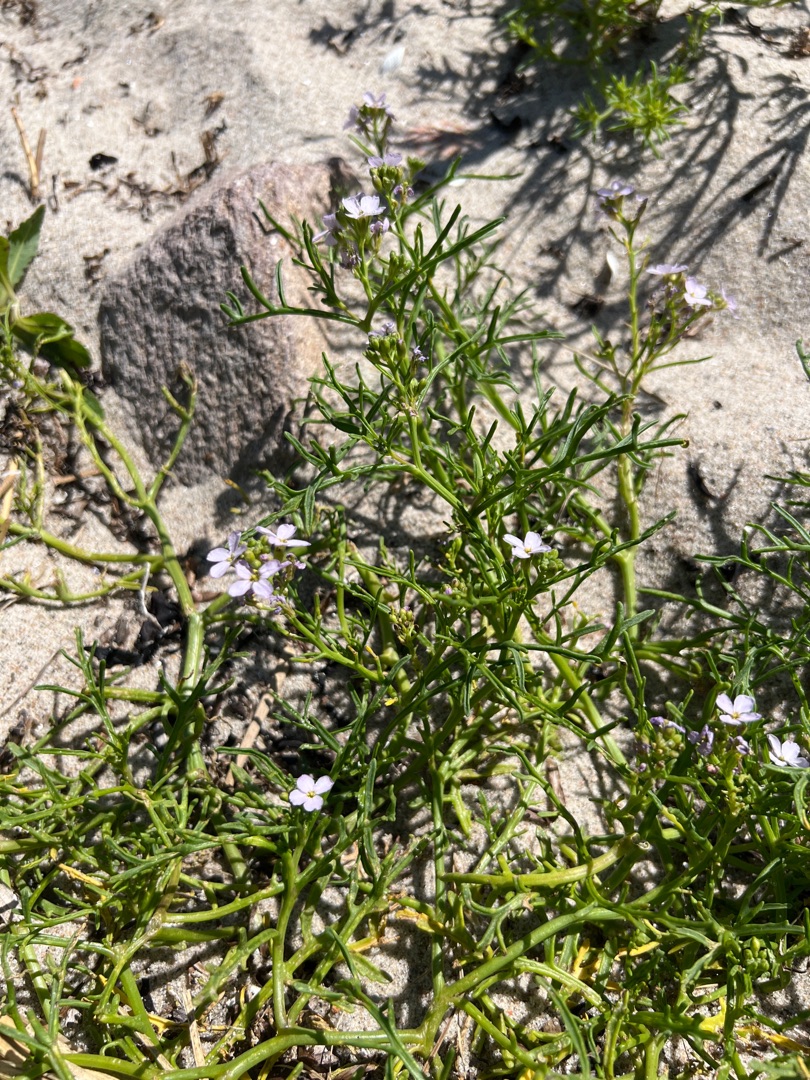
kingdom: Plantae
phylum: Tracheophyta
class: Magnoliopsida
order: Brassicales
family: Brassicaceae
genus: Cakile
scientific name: Cakile maritima
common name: Strandsennep
